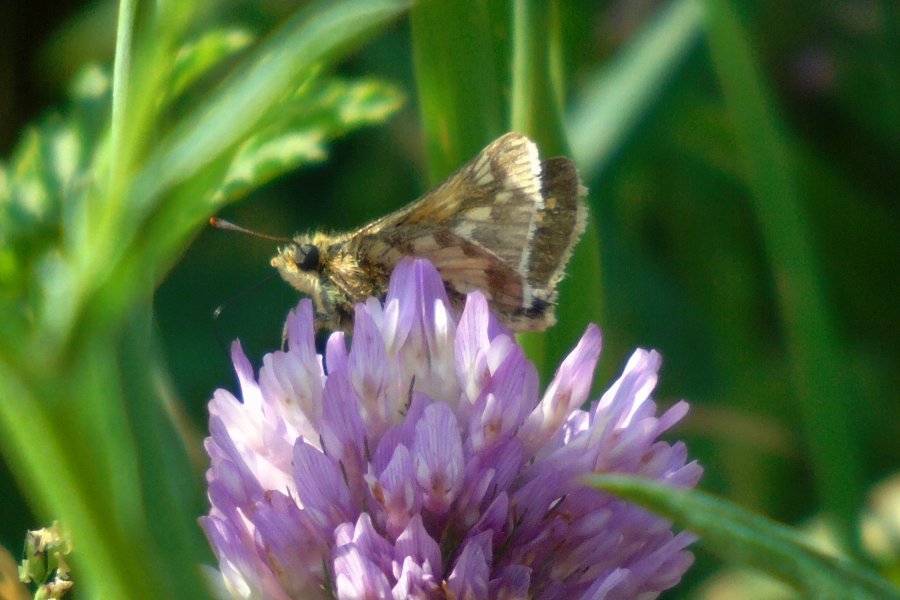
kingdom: Animalia
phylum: Arthropoda
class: Insecta
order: Lepidoptera
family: Hesperiidae
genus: Polites
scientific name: Polites coras
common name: Peck's Skipper
